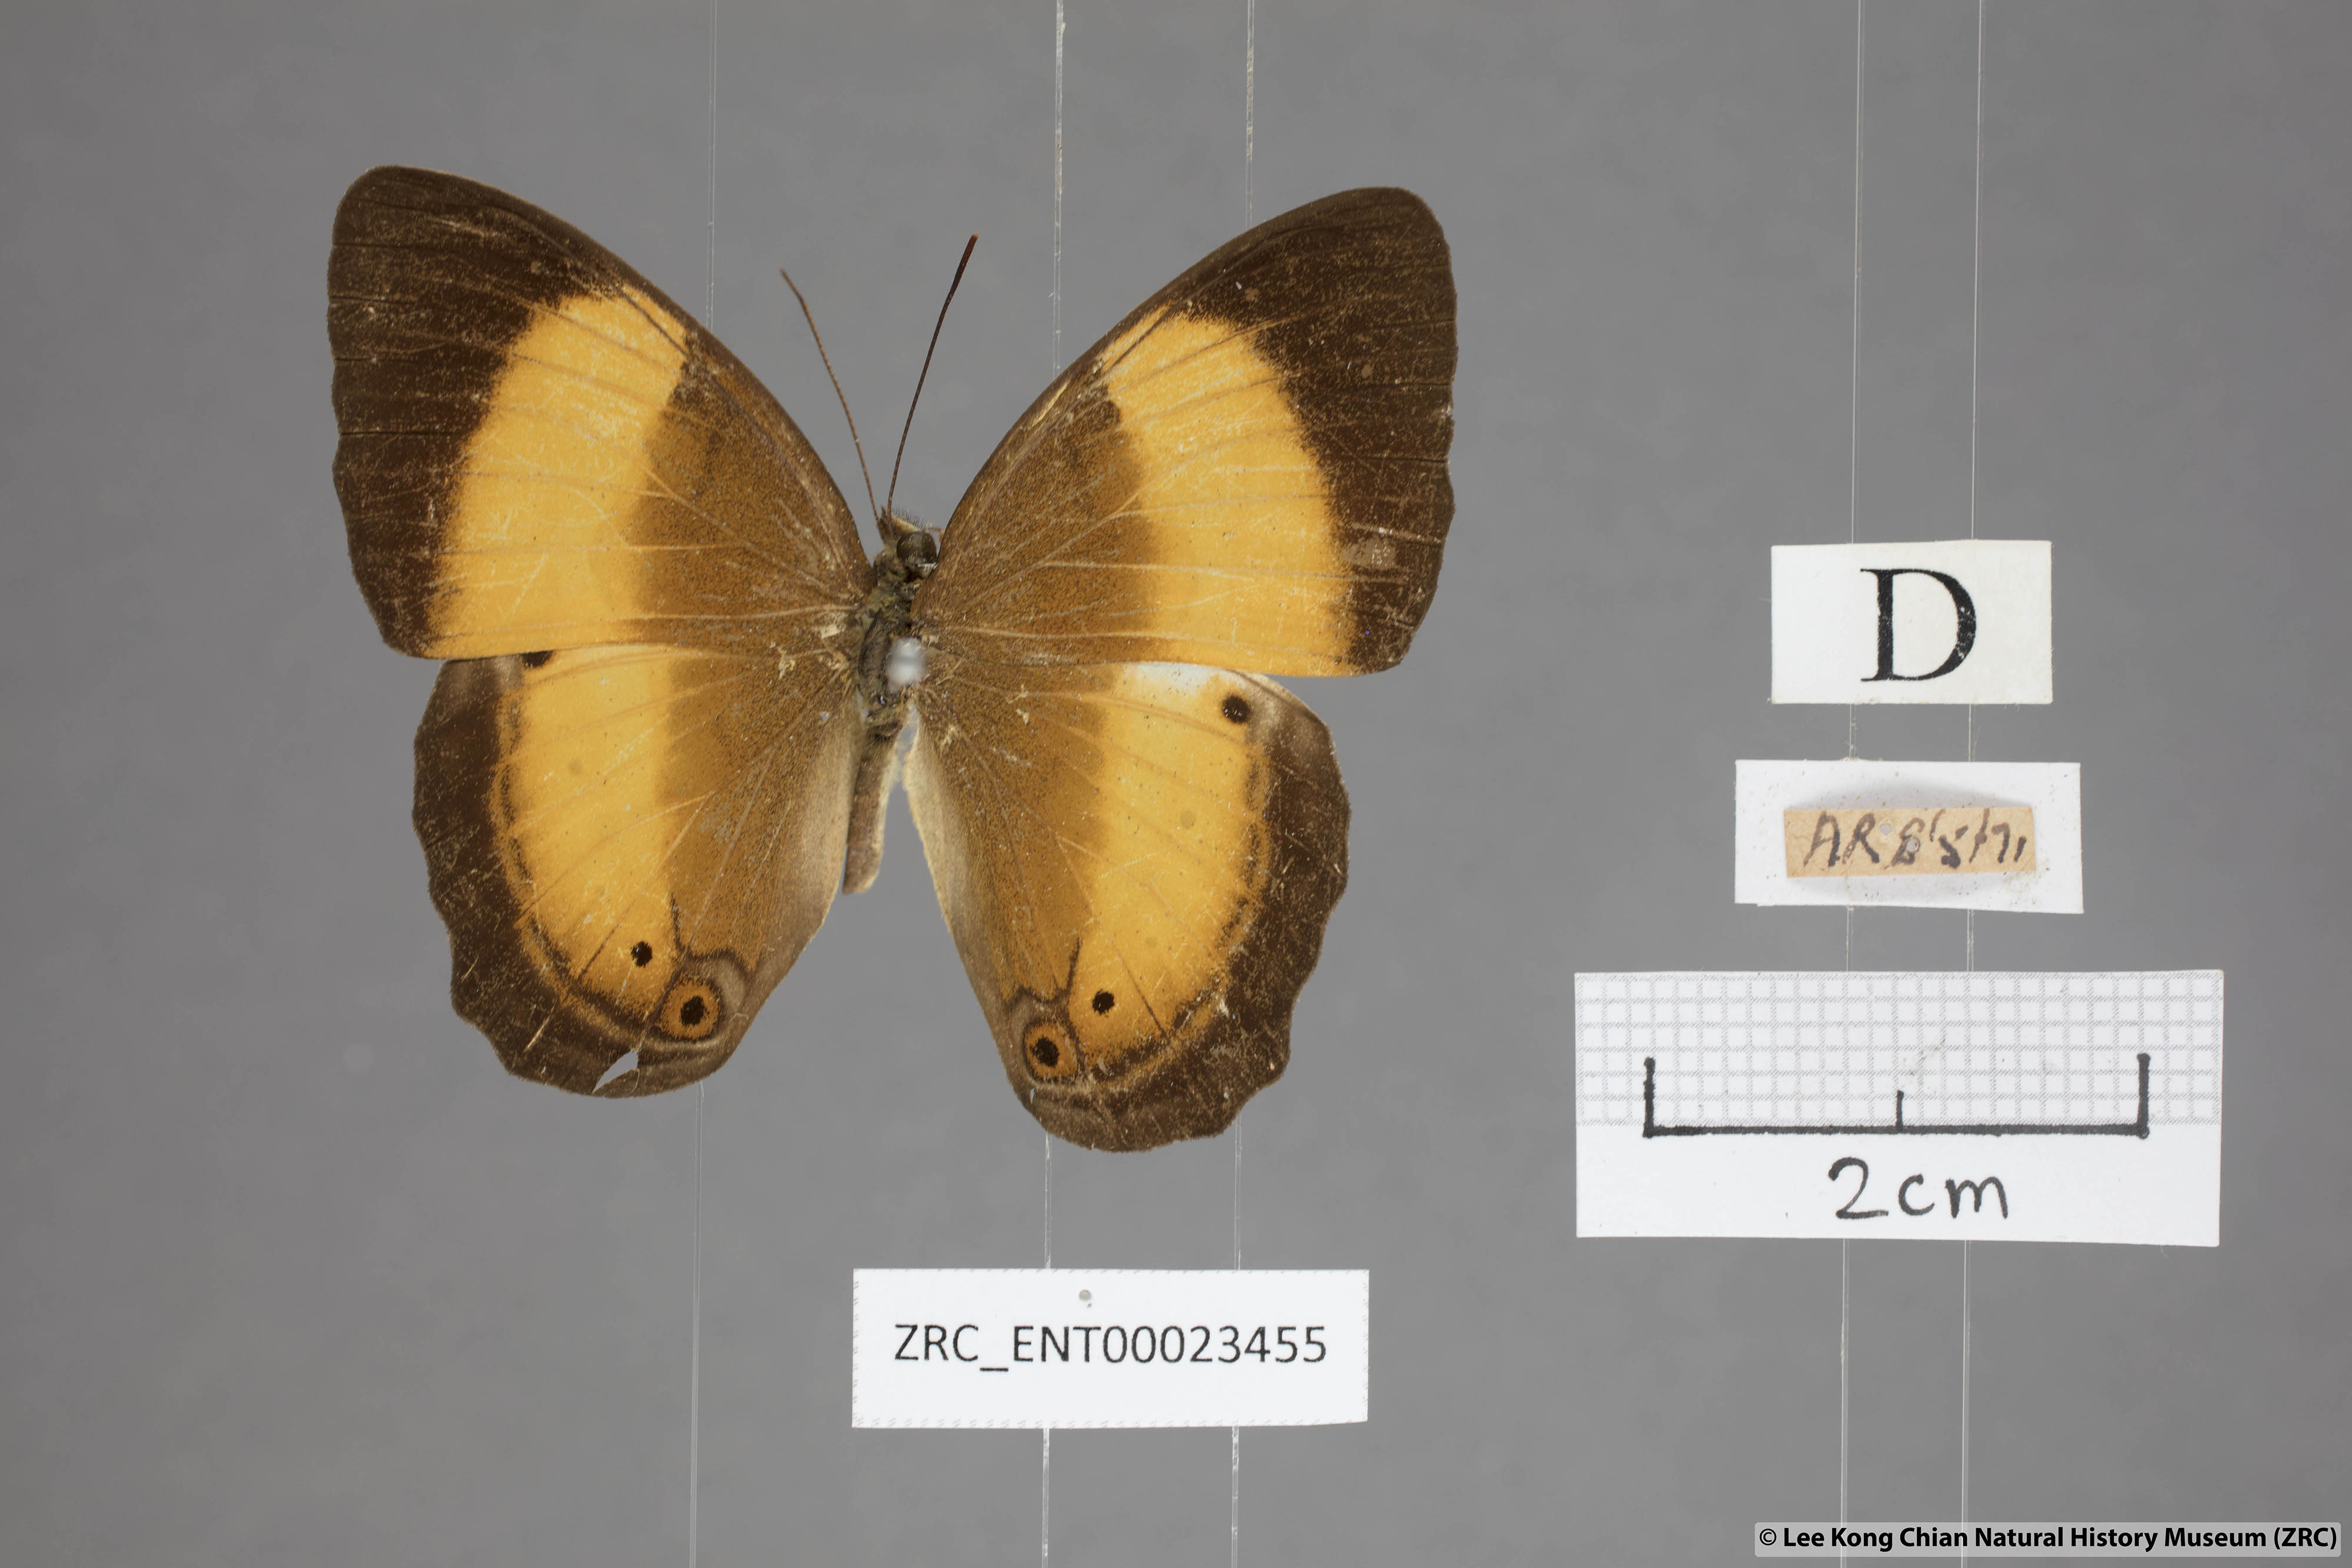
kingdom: Animalia
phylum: Arthropoda
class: Insecta
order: Lepidoptera
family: Nymphalidae
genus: Cirrochroa
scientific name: Cirrochroa satellita
